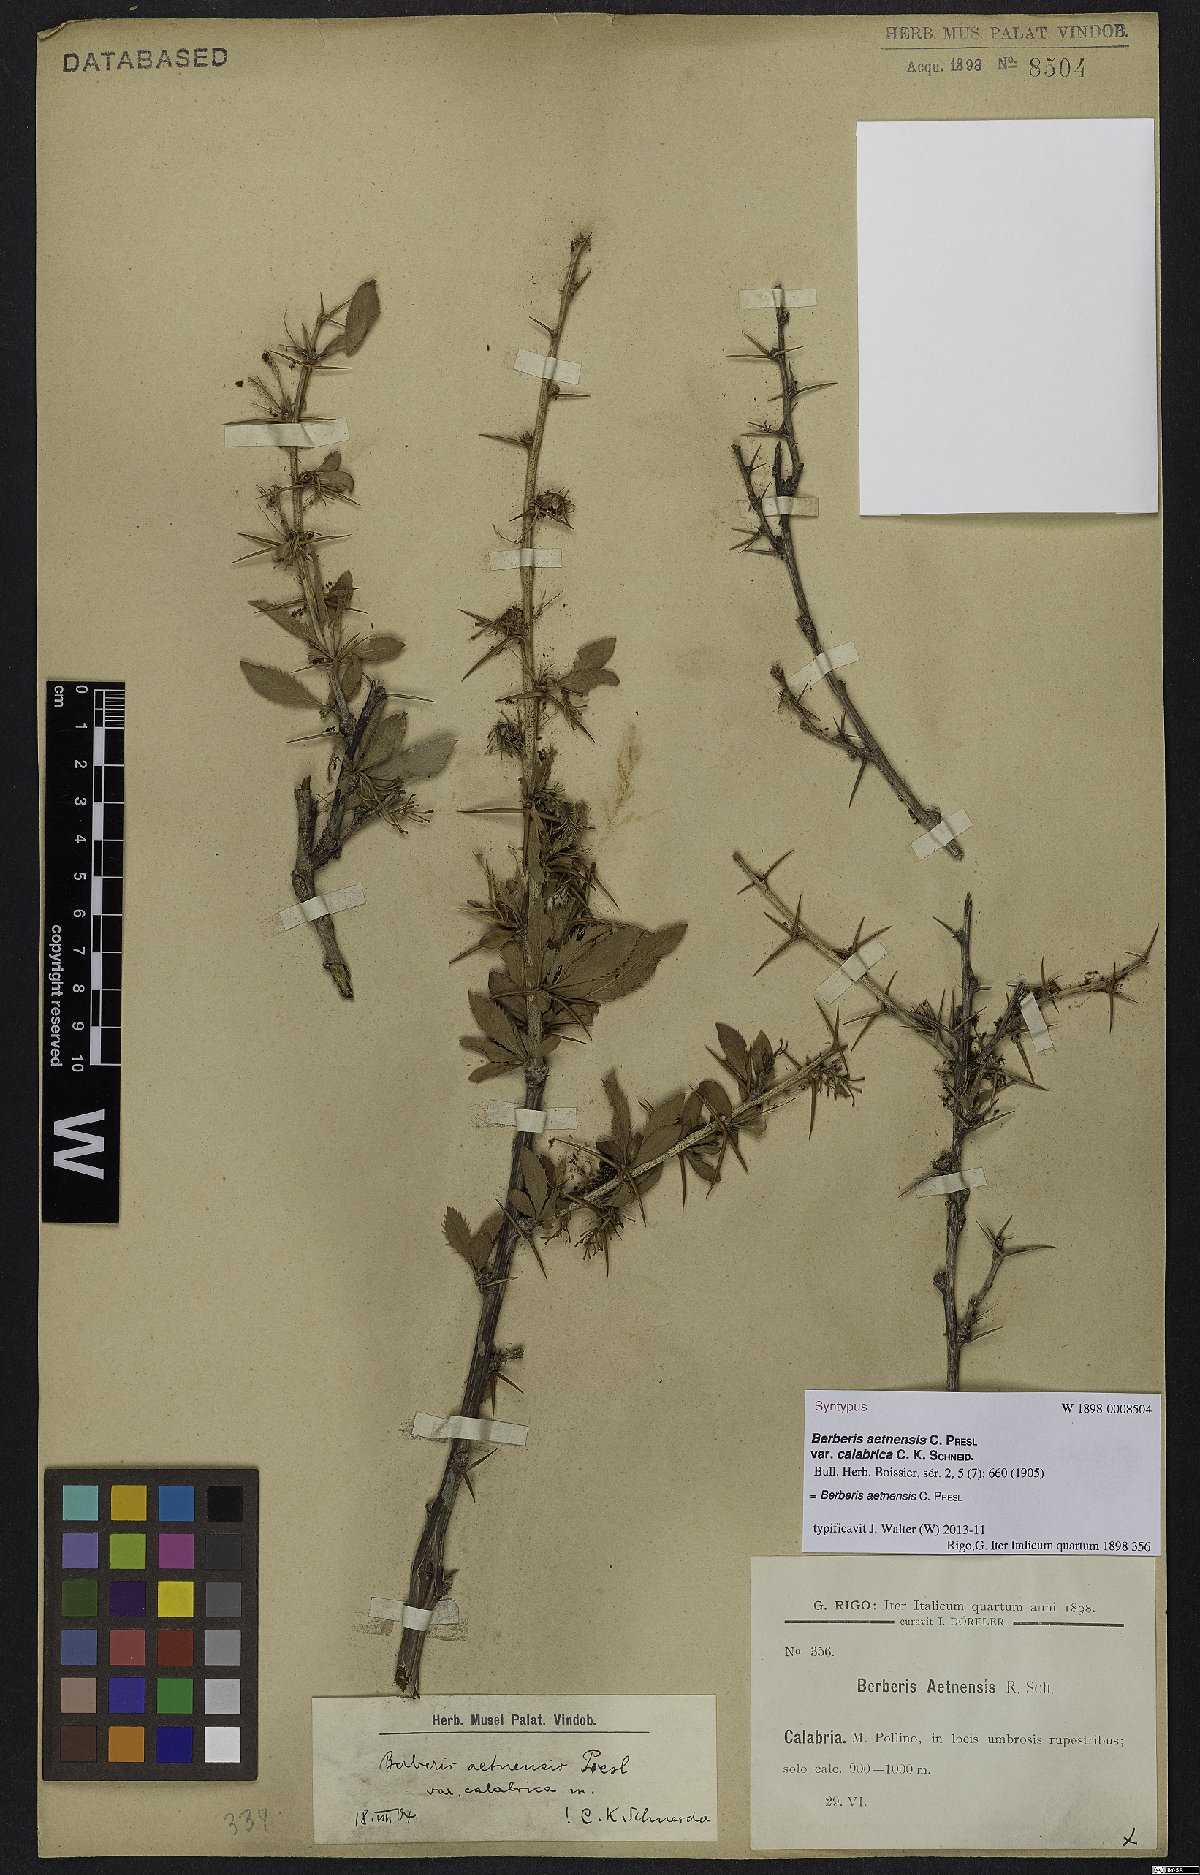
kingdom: Plantae
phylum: Tracheophyta
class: Magnoliopsida
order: Ranunculales
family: Berberidaceae
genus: Berberis
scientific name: Berberis aetnensis
